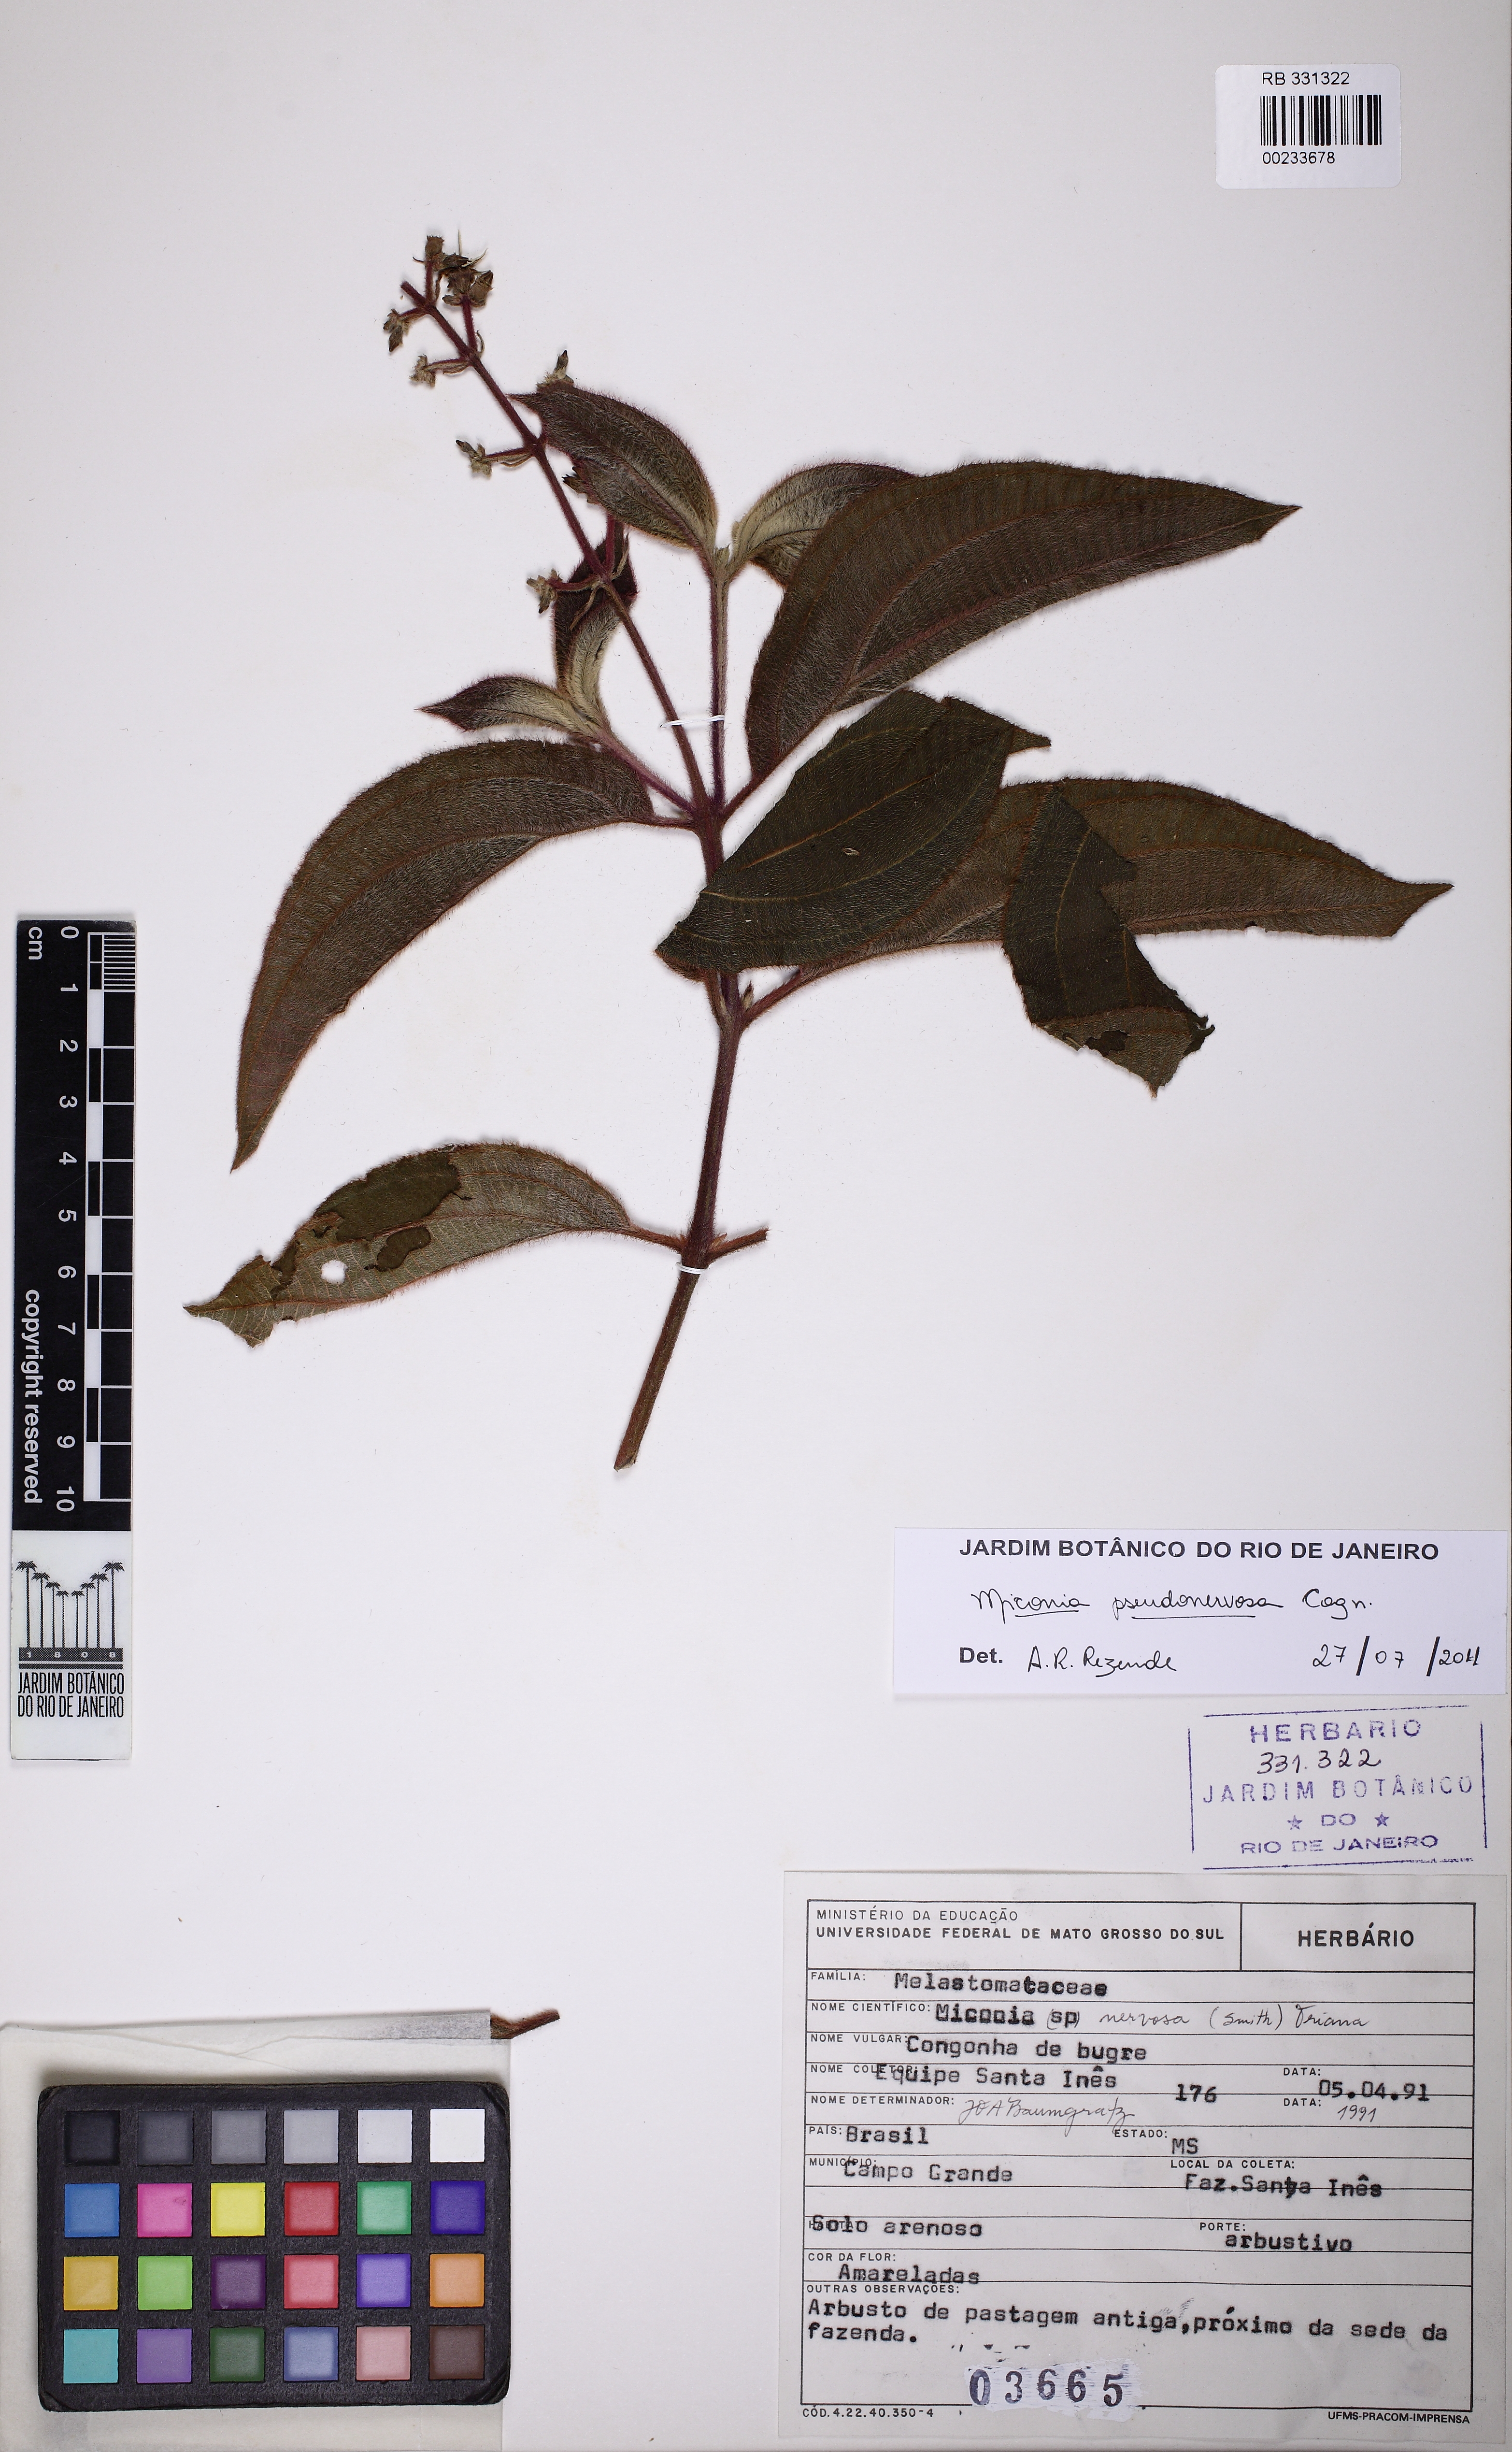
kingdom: Plantae
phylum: Tracheophyta
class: Magnoliopsida
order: Myrtales
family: Melastomataceae
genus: Miconia
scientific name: Miconia pseudonervosa
